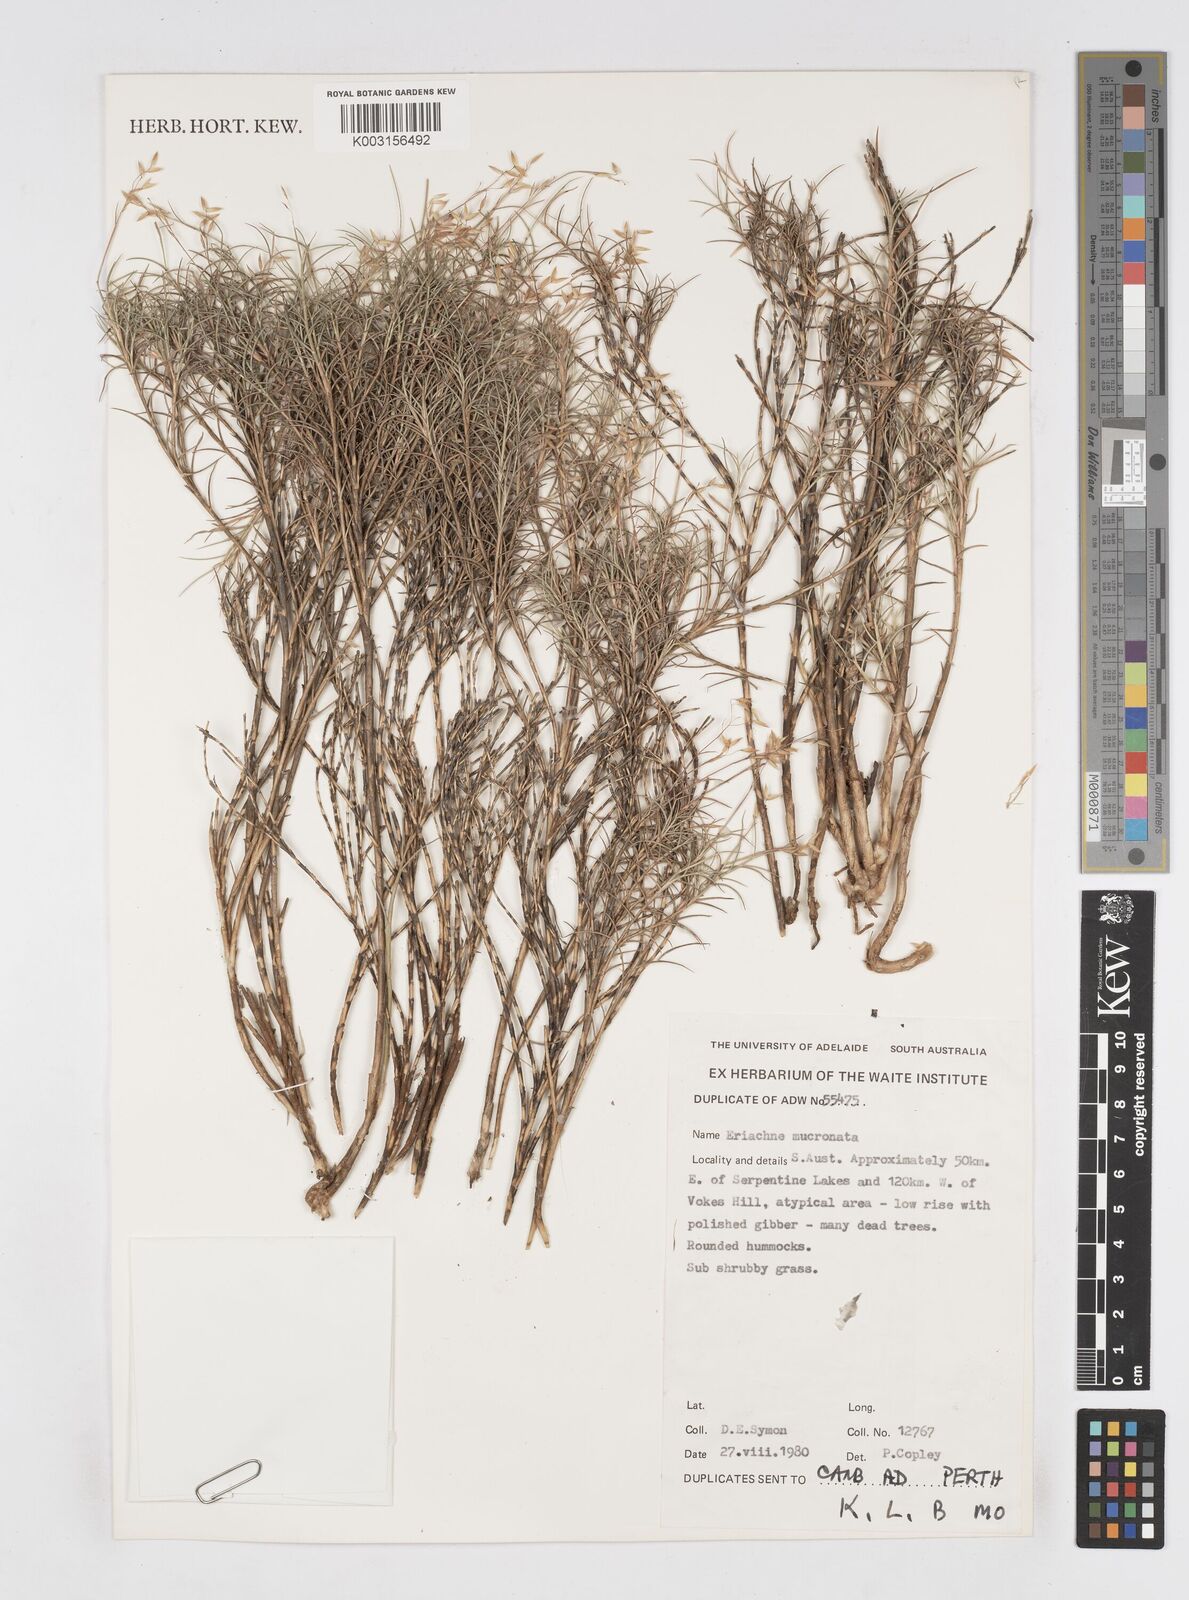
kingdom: Plantae
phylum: Tracheophyta
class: Liliopsida
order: Poales
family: Poaceae
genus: Eriachne
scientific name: Eriachne mucronata
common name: Mountain wanderrie grass
